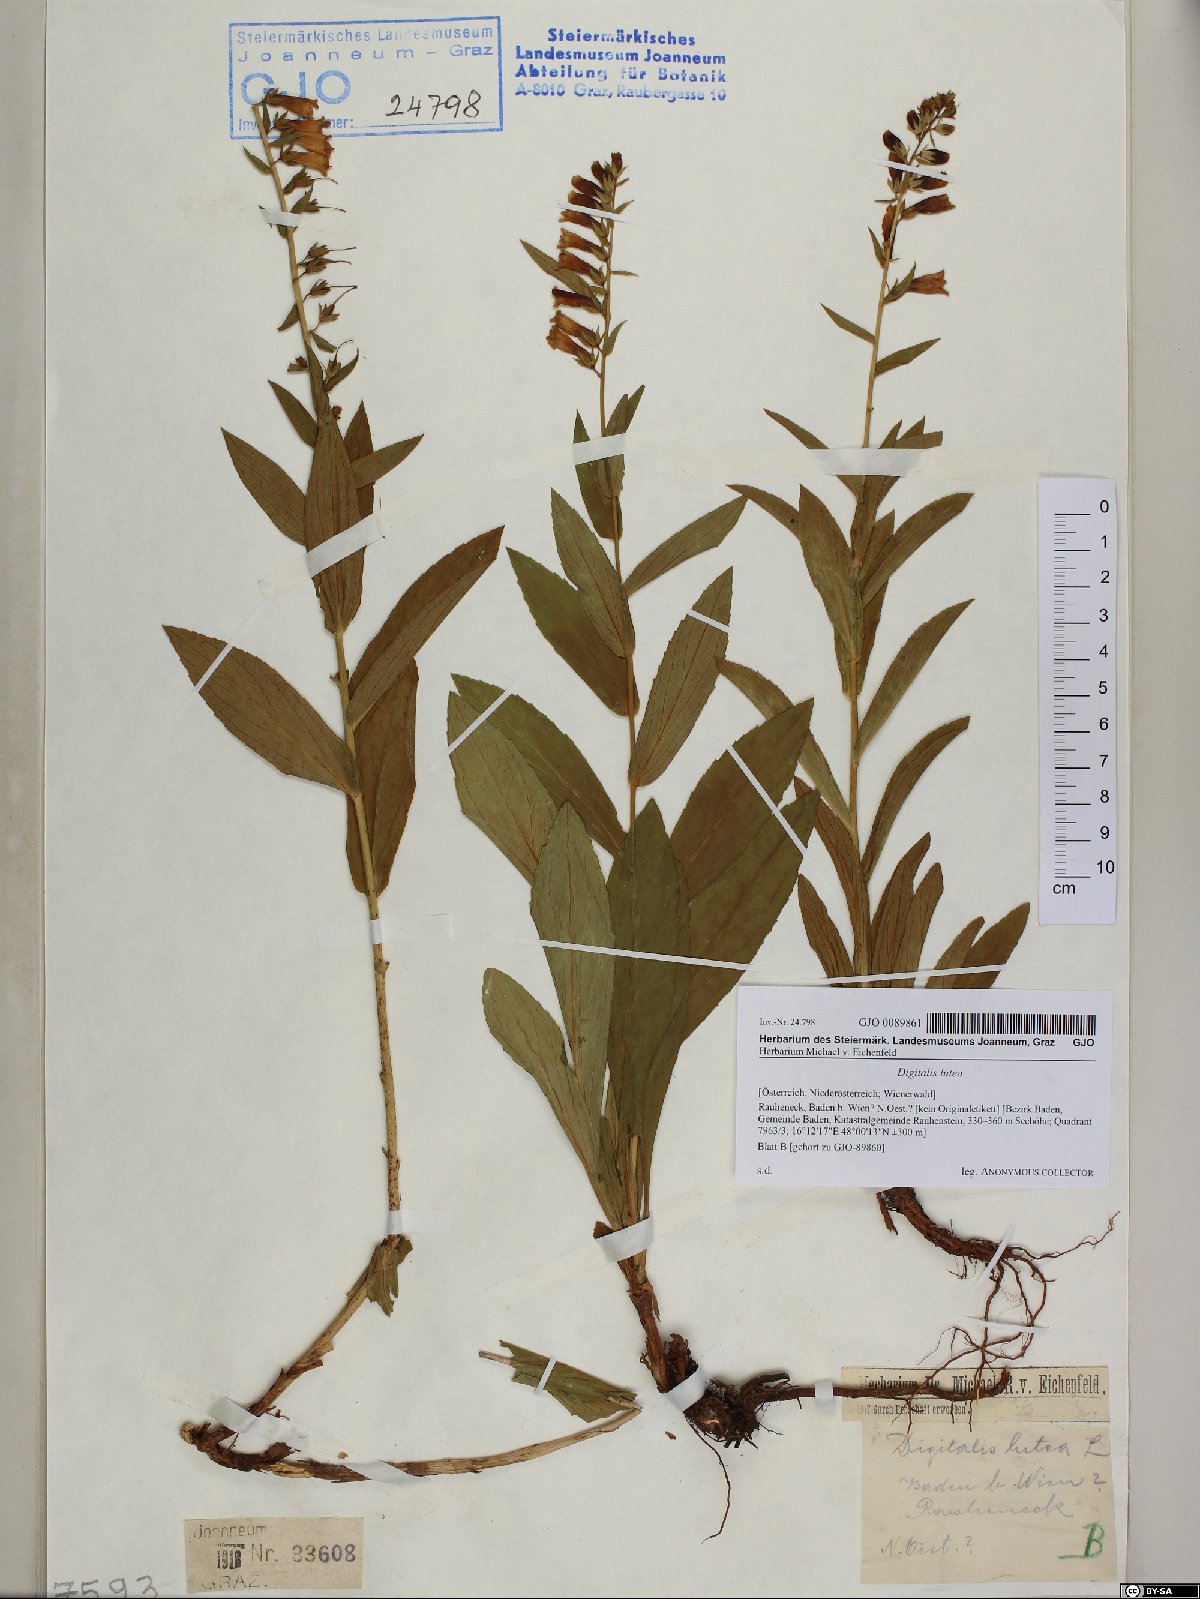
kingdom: Plantae
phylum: Tracheophyta
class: Magnoliopsida
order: Lamiales
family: Plantaginaceae
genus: Digitalis
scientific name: Digitalis lutea
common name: Straw foxglove
